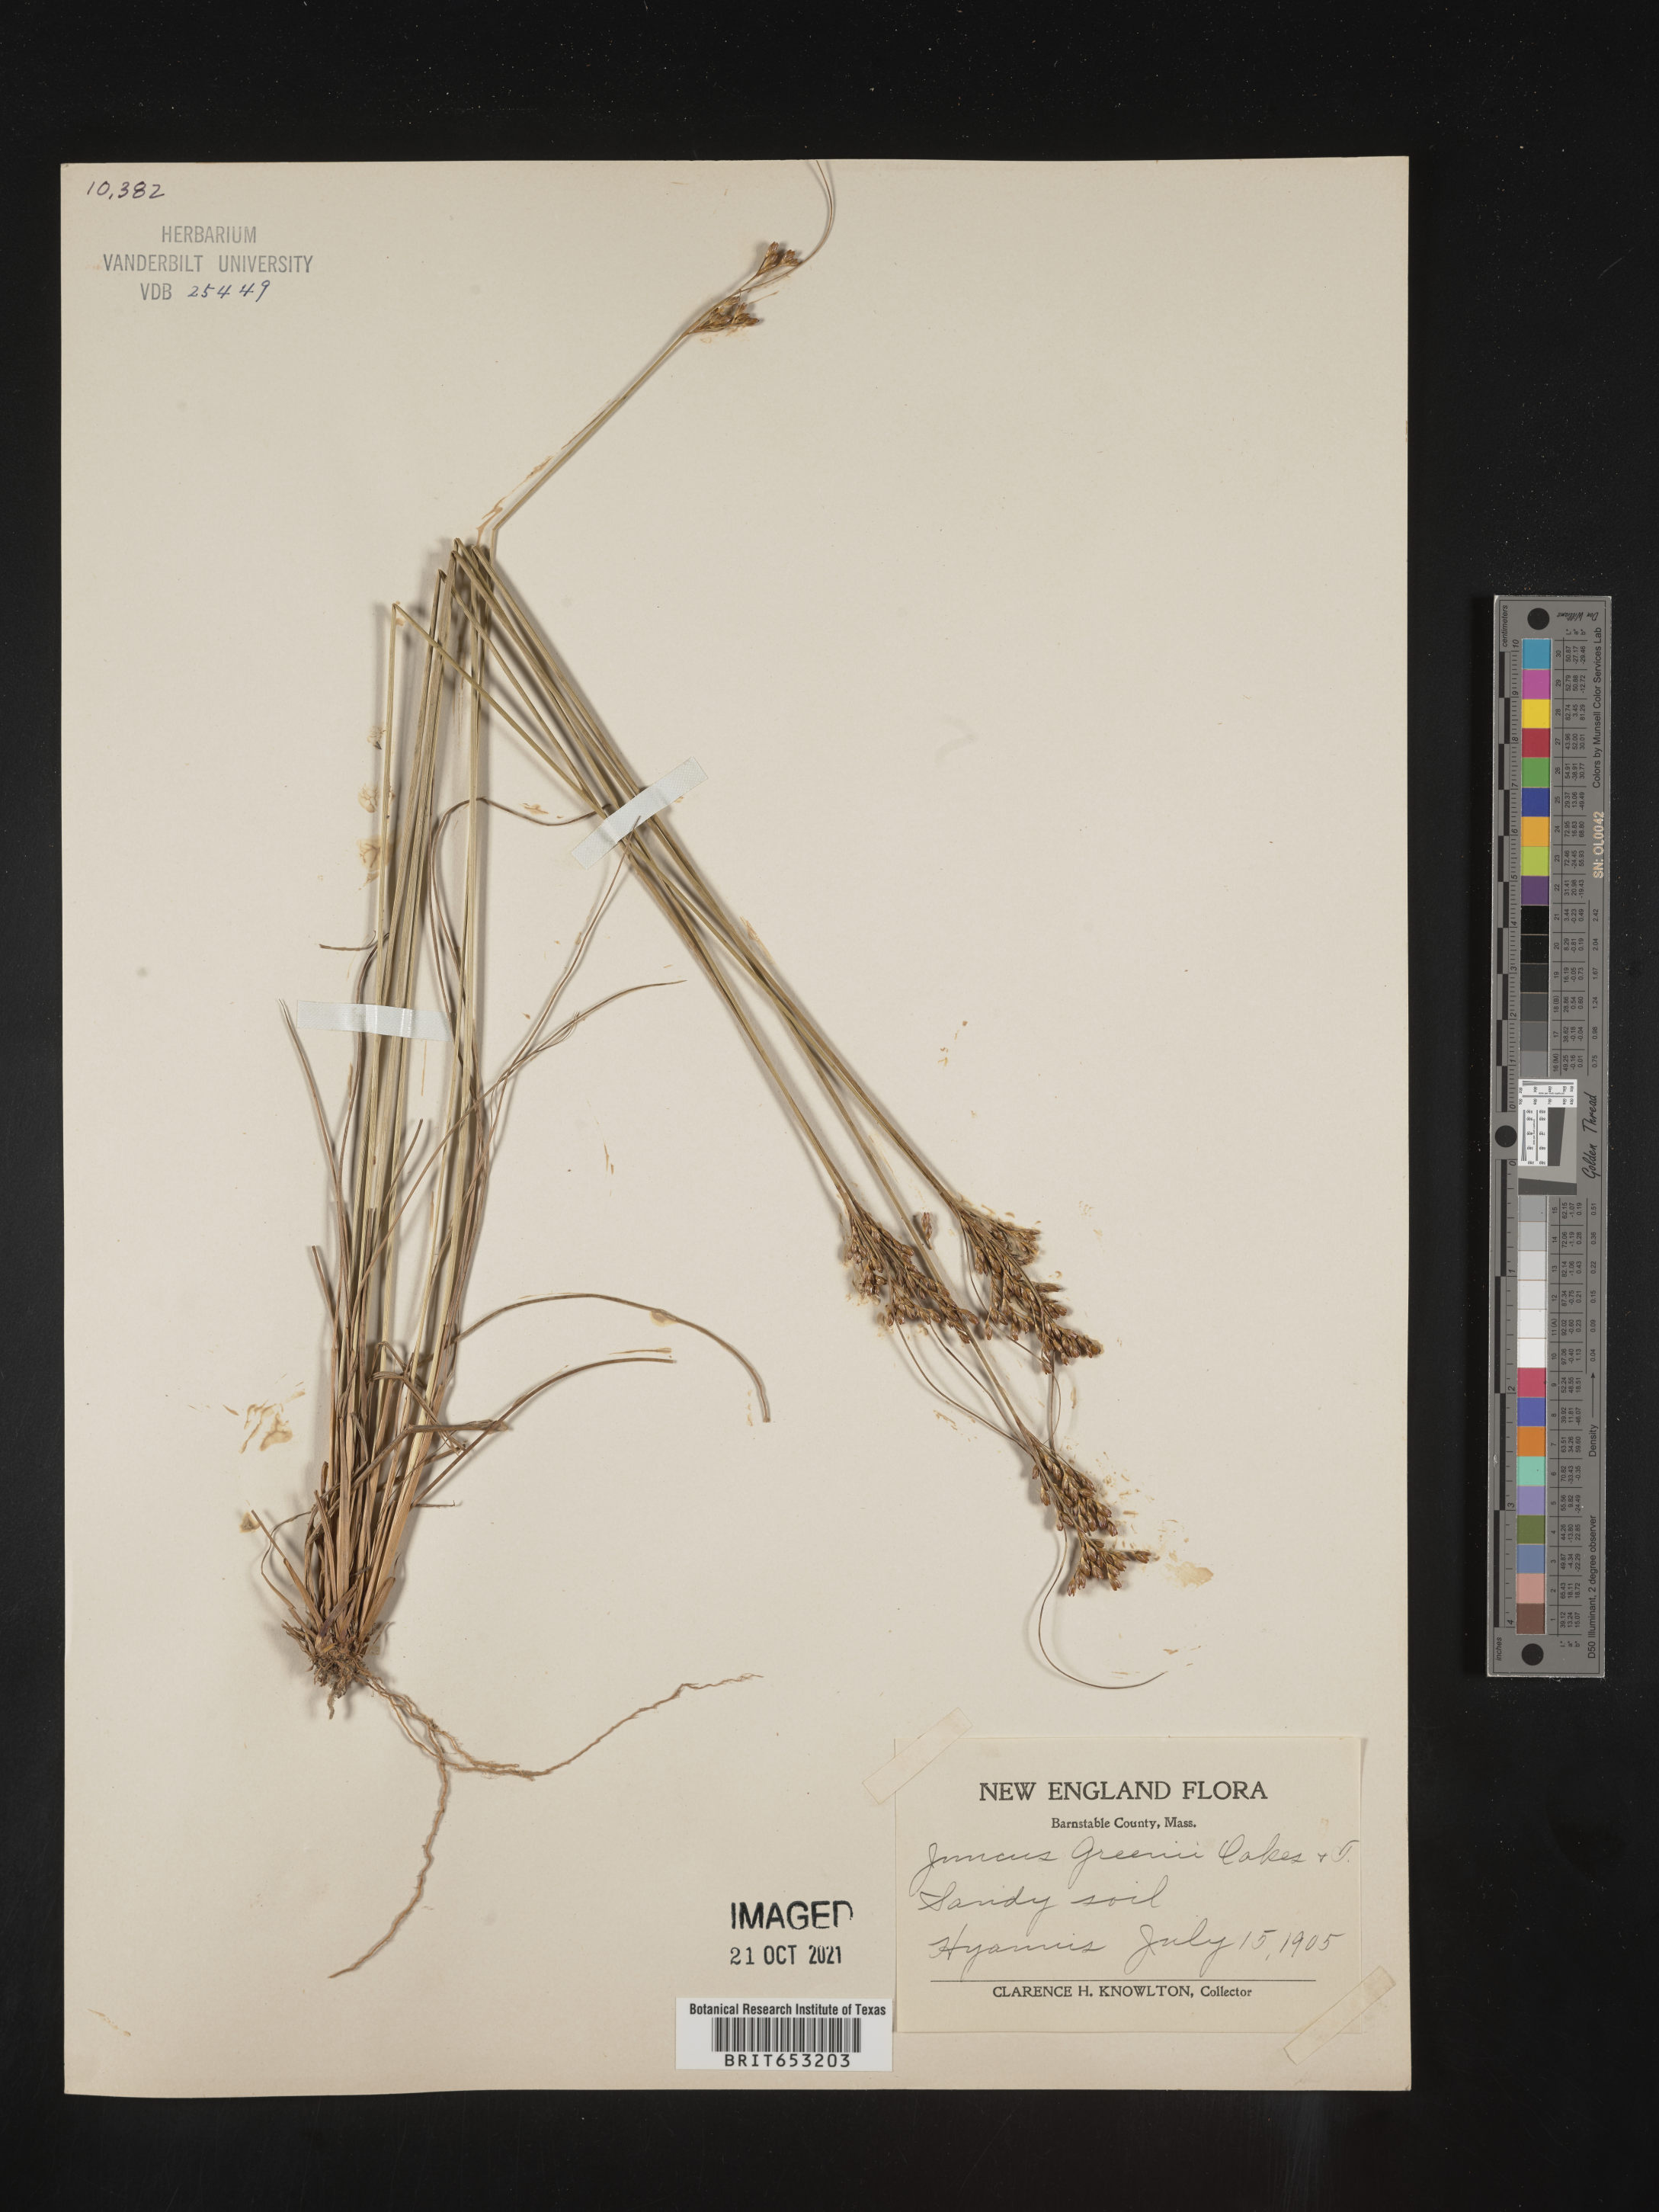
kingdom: Plantae
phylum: Tracheophyta
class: Liliopsida
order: Poales
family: Juncaceae
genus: Juncus
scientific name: Juncus greenei
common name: Greene's rush
